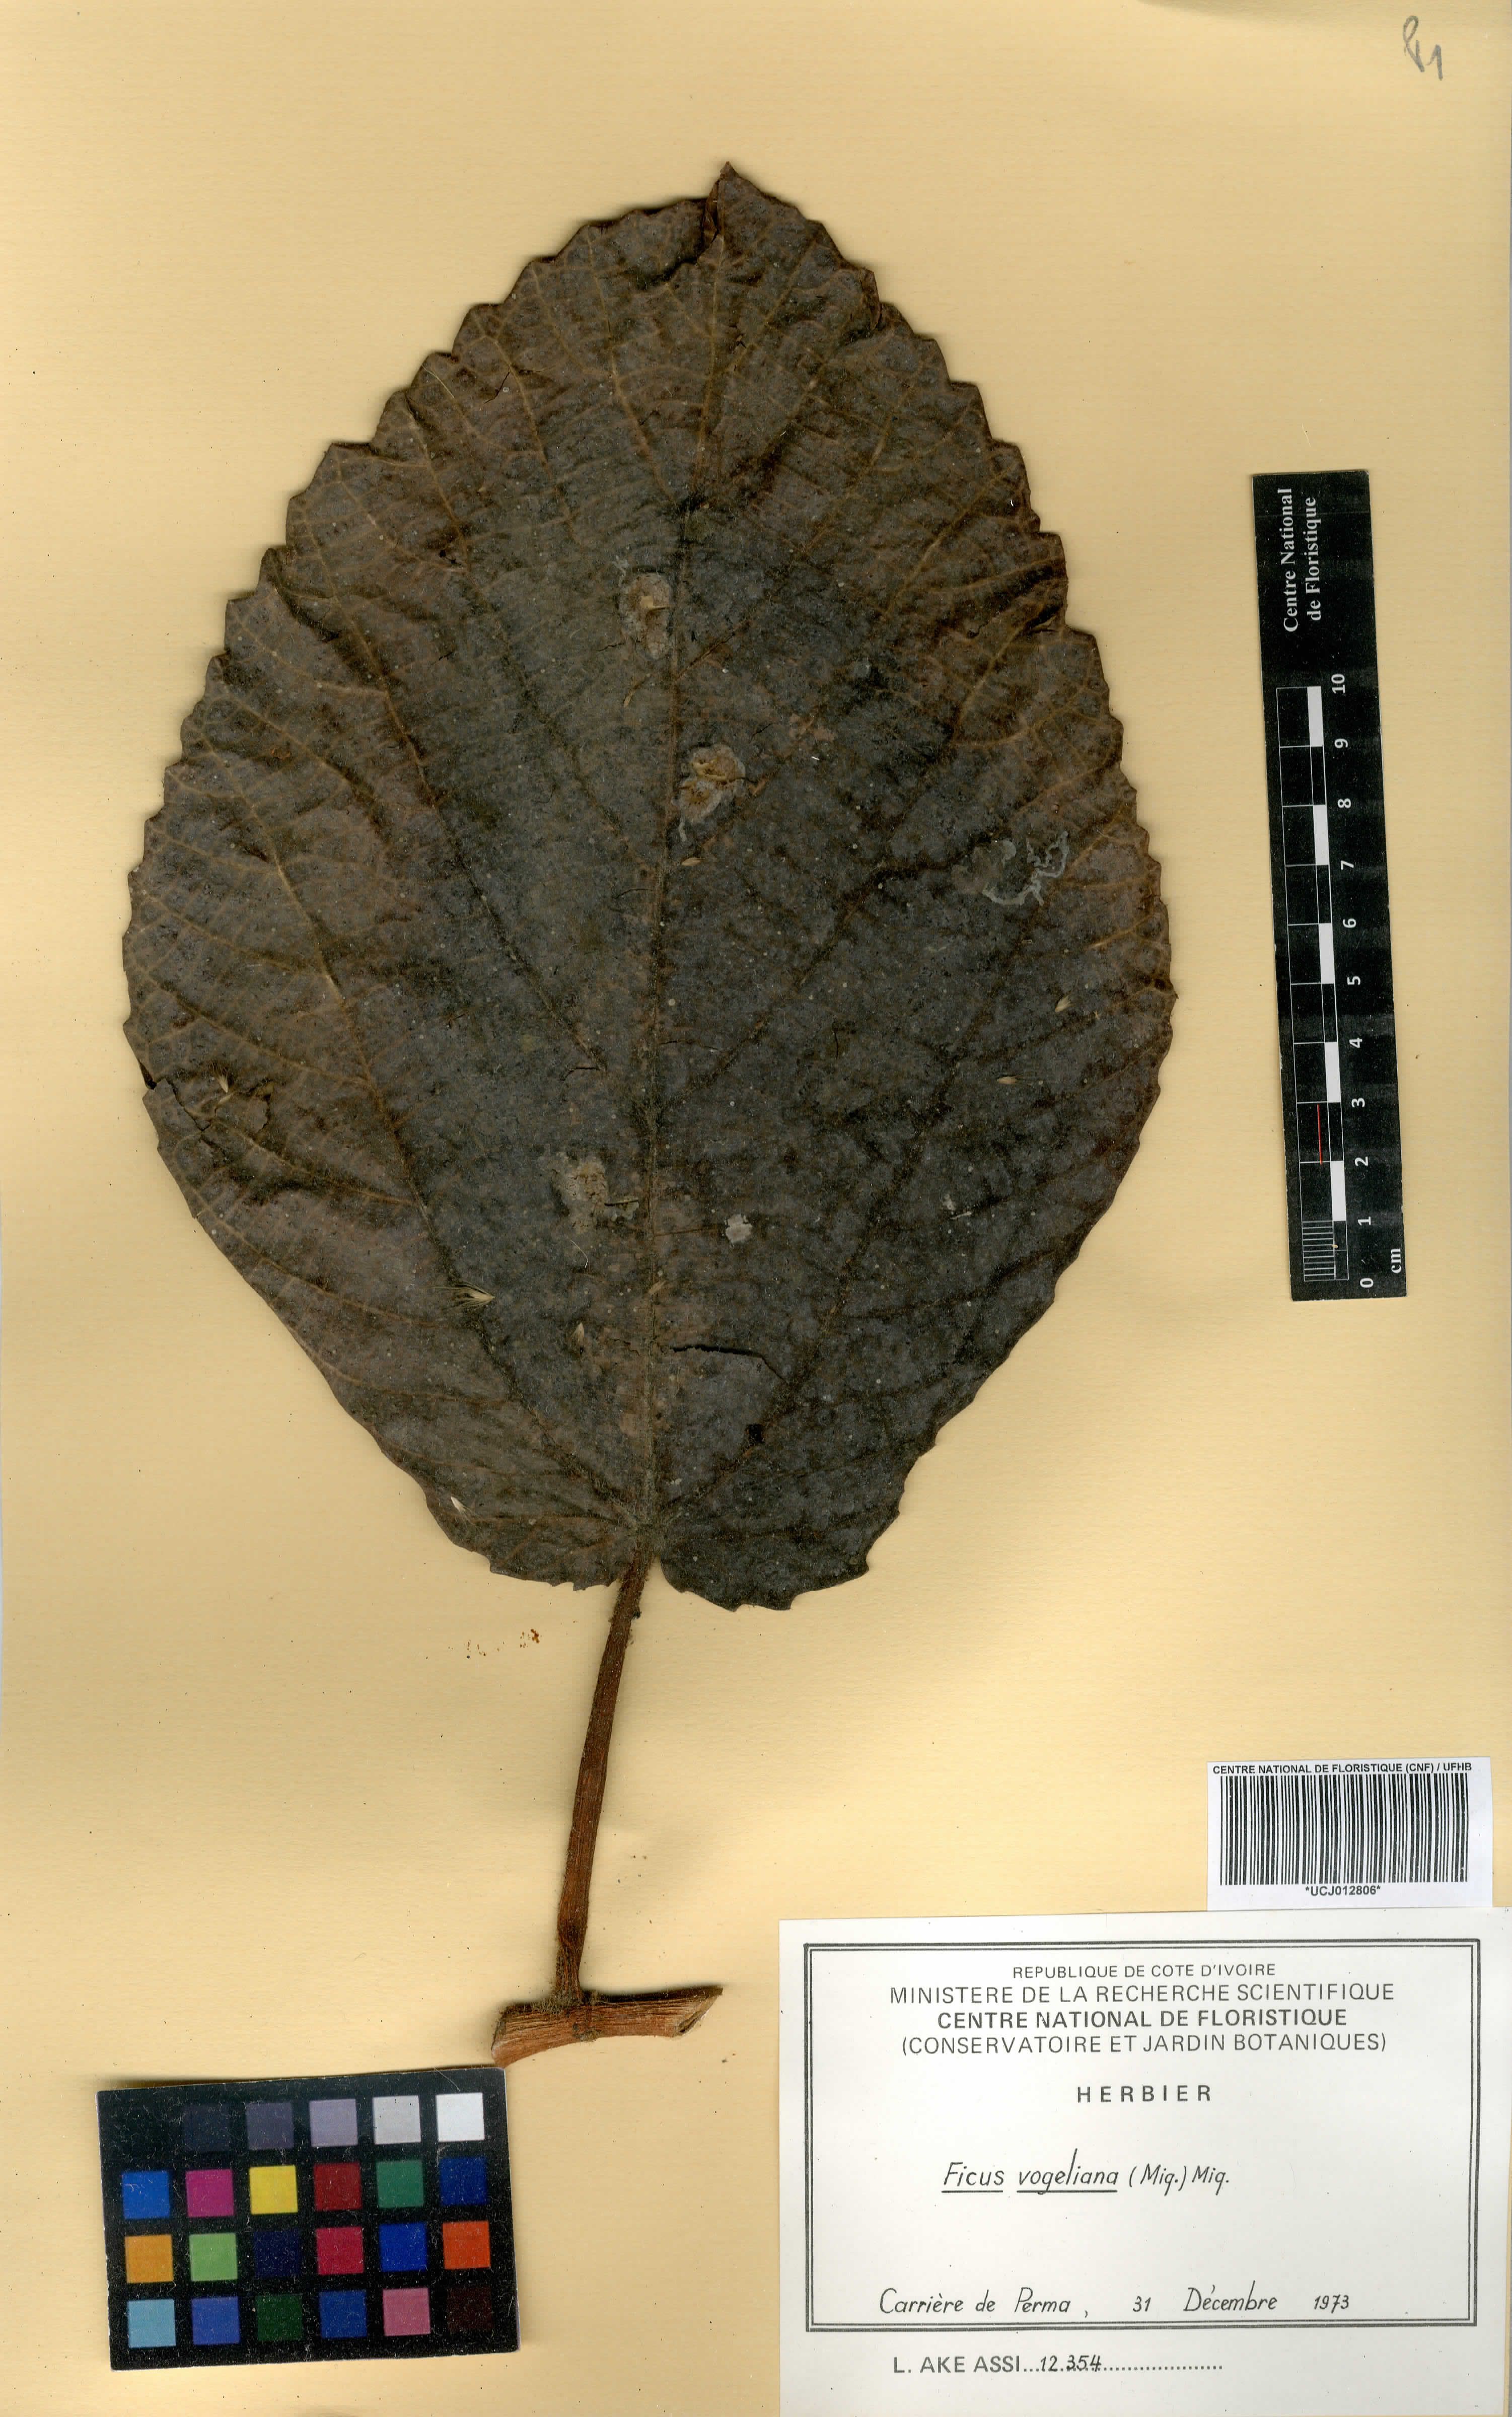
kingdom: Plantae
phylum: Tracheophyta
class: Magnoliopsida
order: Rosales
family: Moraceae
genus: Ficus
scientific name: Ficus vogeliana
